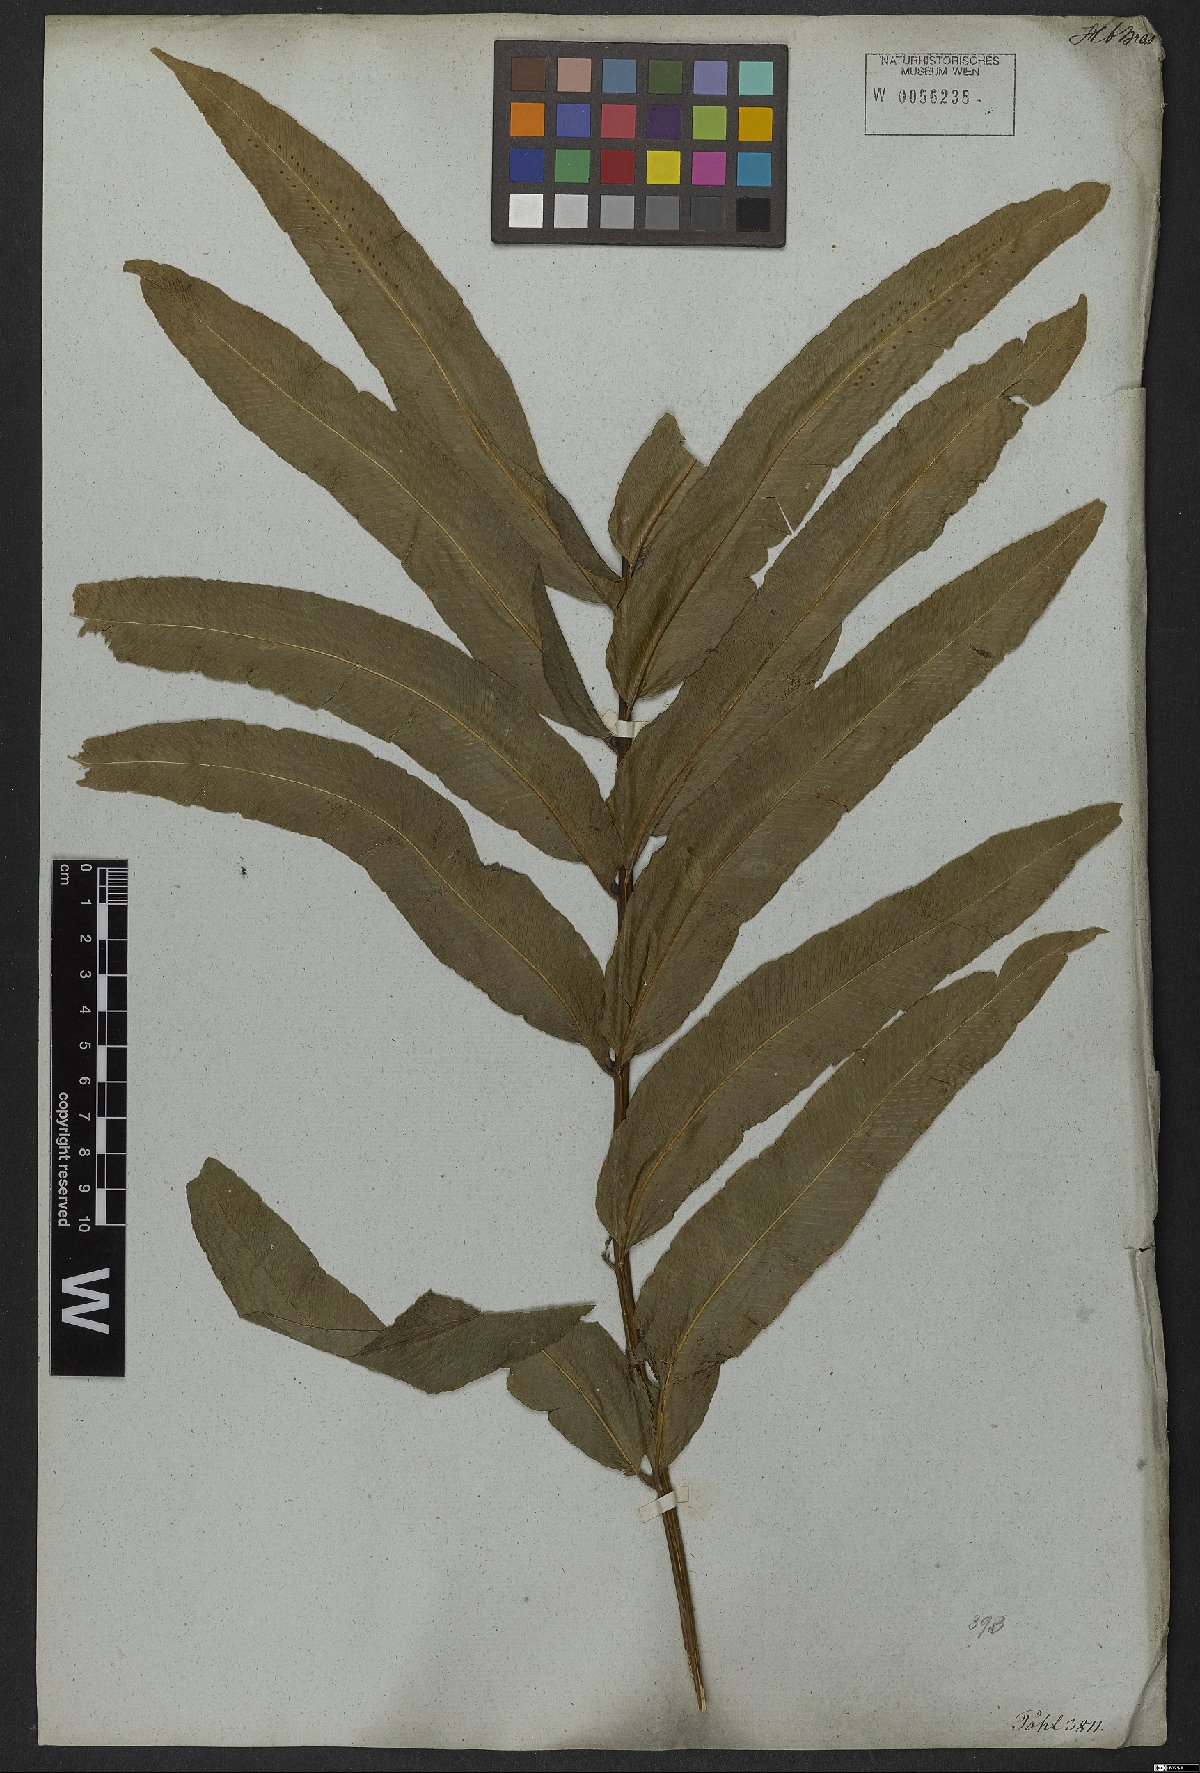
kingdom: Plantae
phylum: Tracheophyta
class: Polypodiopsida
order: Polypodiales
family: Polypodiaceae
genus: Serpocaulon
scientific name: Serpocaulon triseriale
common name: Angle-vein fern
